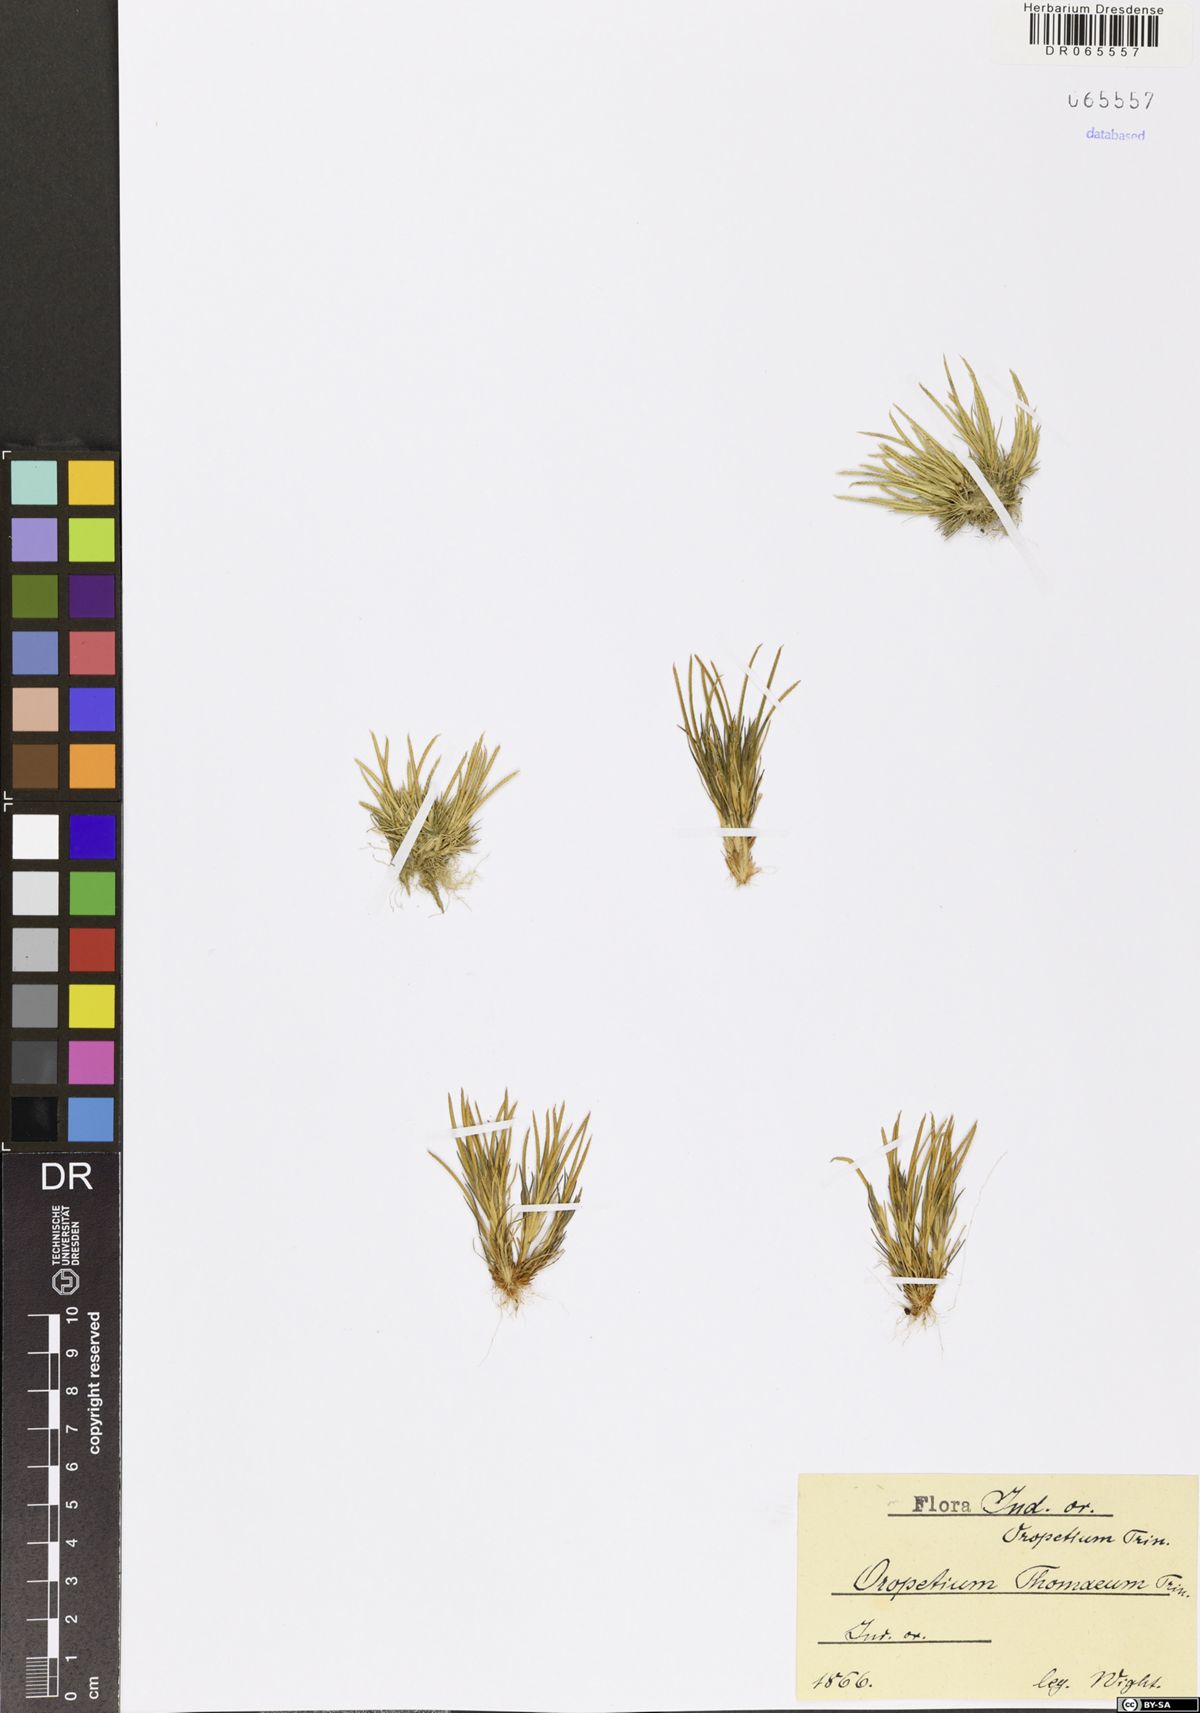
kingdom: Plantae
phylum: Tracheophyta
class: Liliopsida
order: Poales
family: Poaceae
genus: Oropetium
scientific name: Oropetium thomaeum
